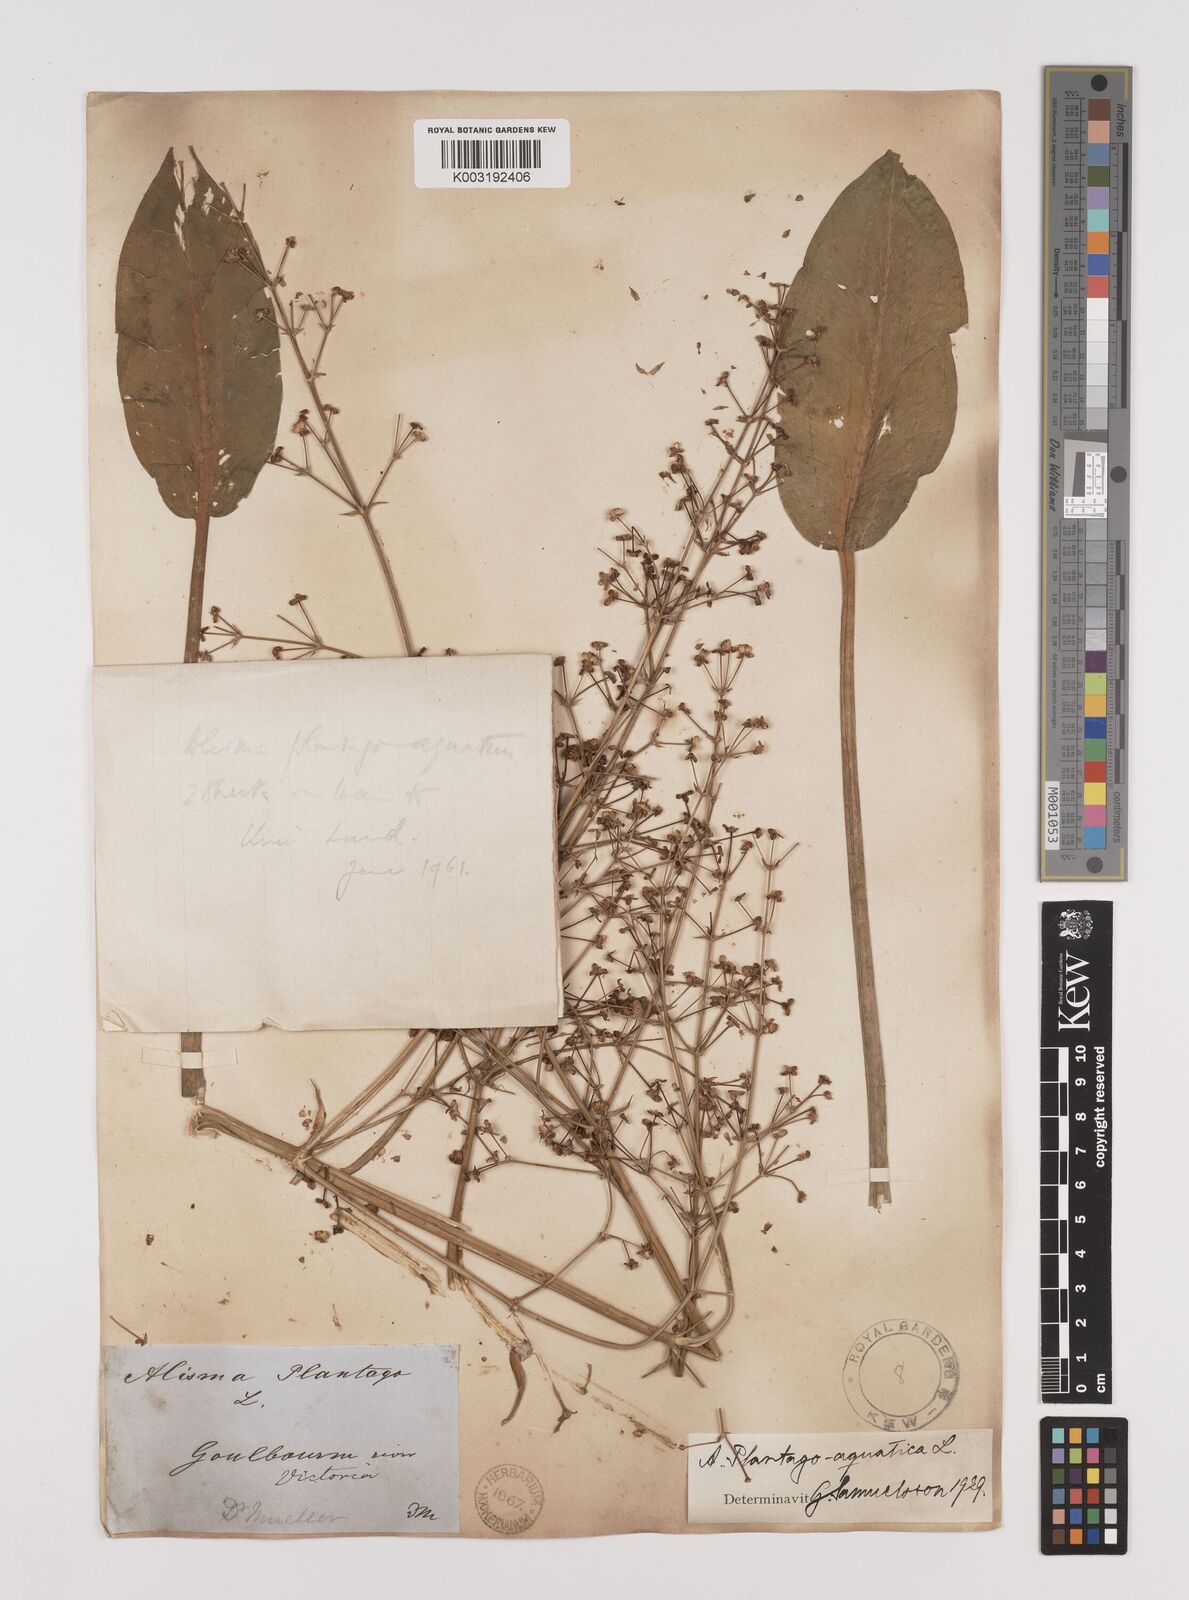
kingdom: Plantae
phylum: Tracheophyta
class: Liliopsida
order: Alismatales
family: Alismataceae
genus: Alisma
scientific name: Alisma plantago-aquatica
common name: Water-plantain
